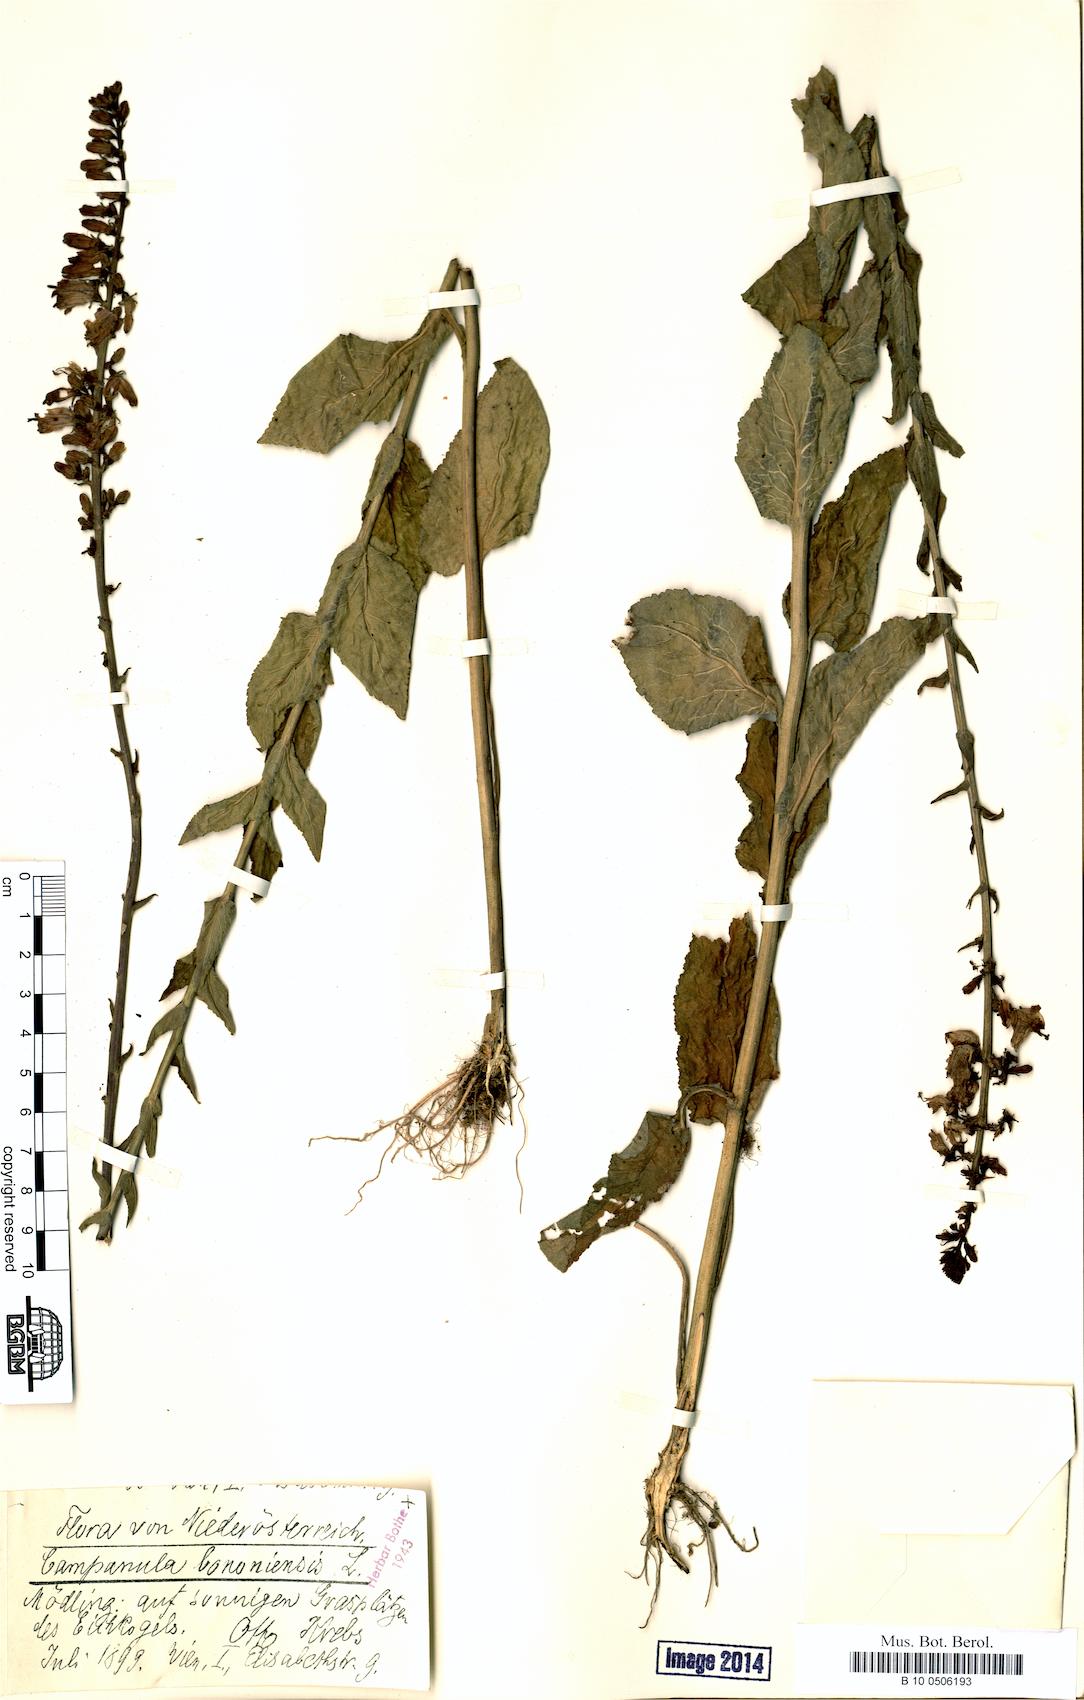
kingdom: Plantae
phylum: Tracheophyta
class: Magnoliopsida
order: Asterales
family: Campanulaceae
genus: Campanula
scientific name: Campanula bononiensis
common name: Pale bellflower
